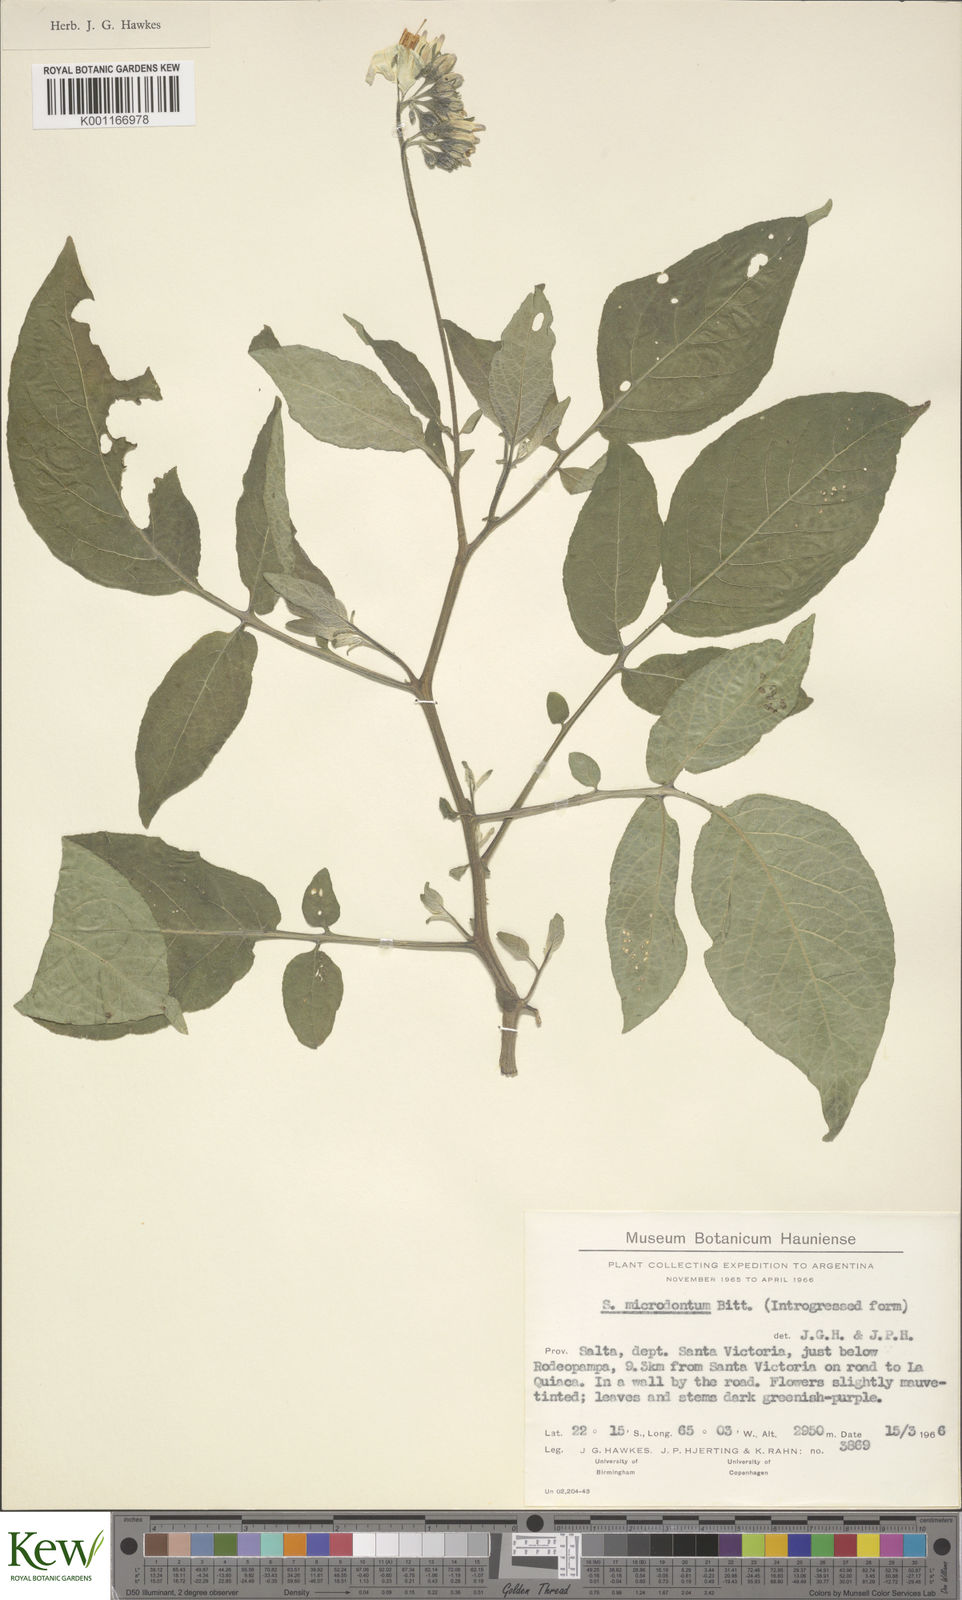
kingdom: Plantae
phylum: Tracheophyta
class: Magnoliopsida
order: Solanales
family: Solanaceae
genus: Solanum
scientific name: Solanum microdontum
